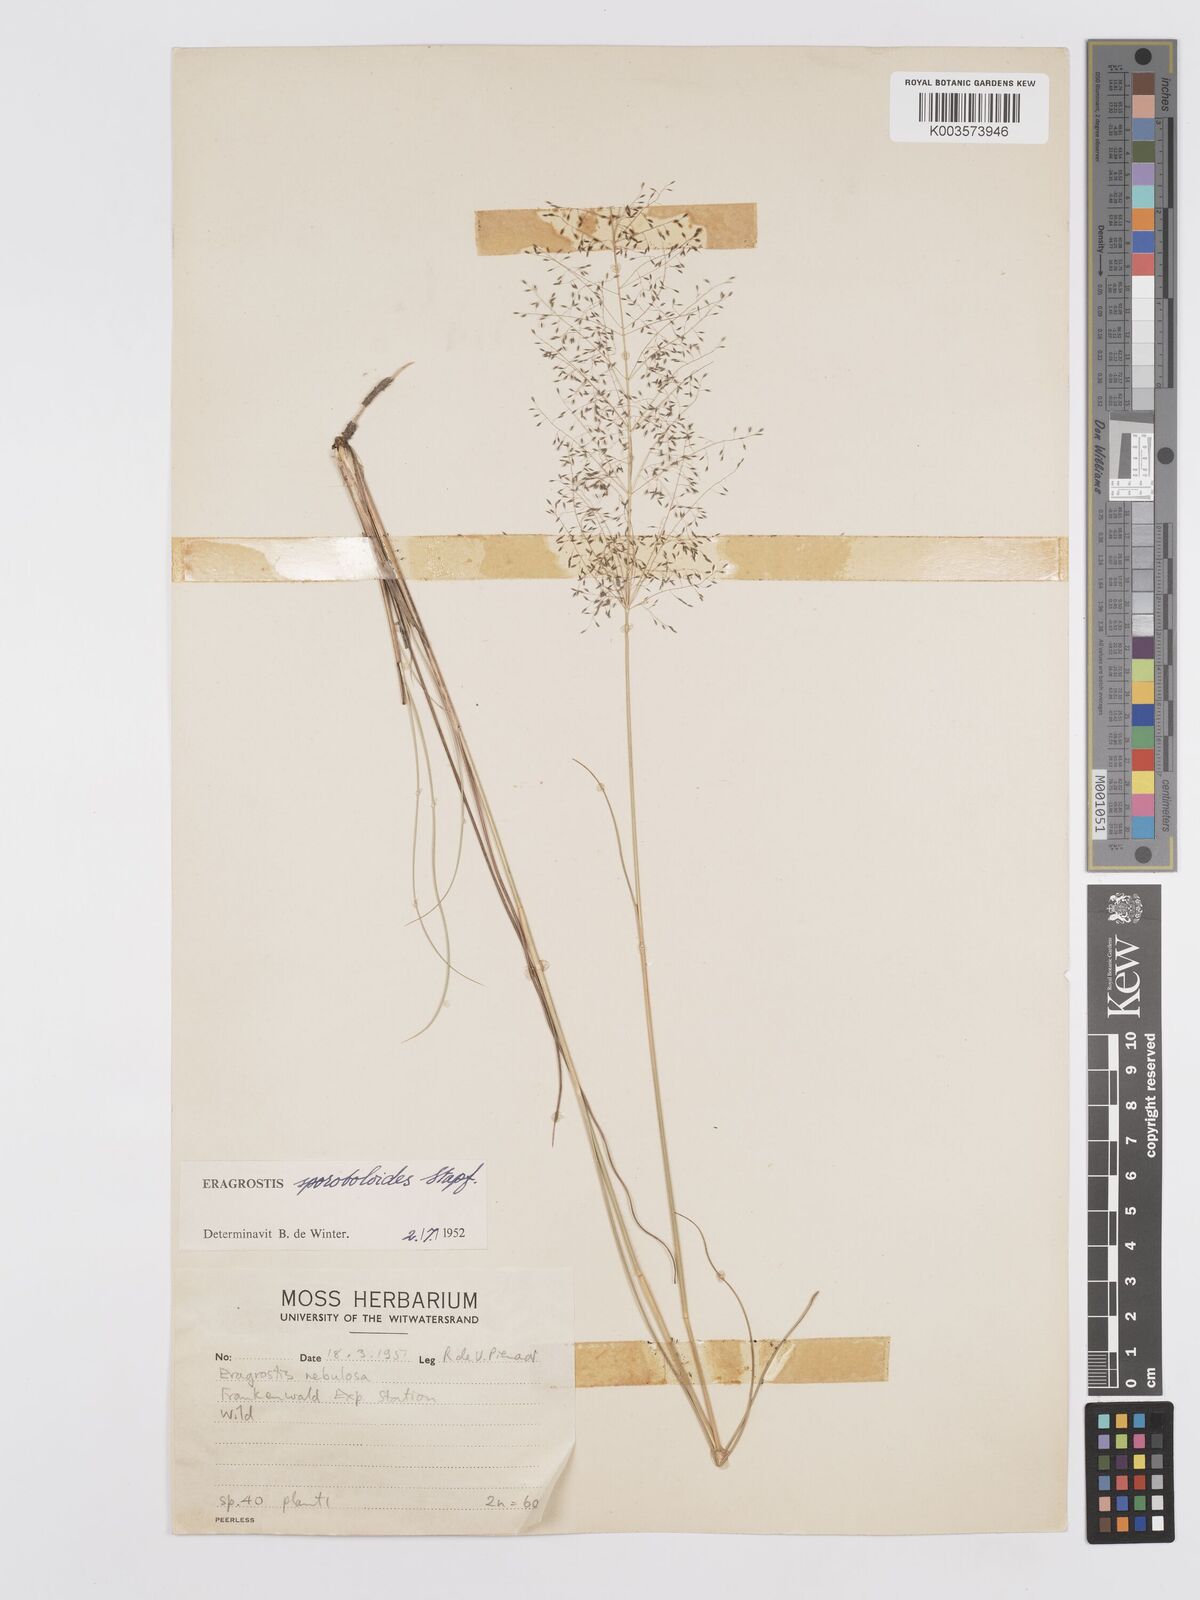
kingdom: Plantae
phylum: Tracheophyta
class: Liliopsida
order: Poales
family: Poaceae
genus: Eragrostis
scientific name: Eragrostis stapfii
